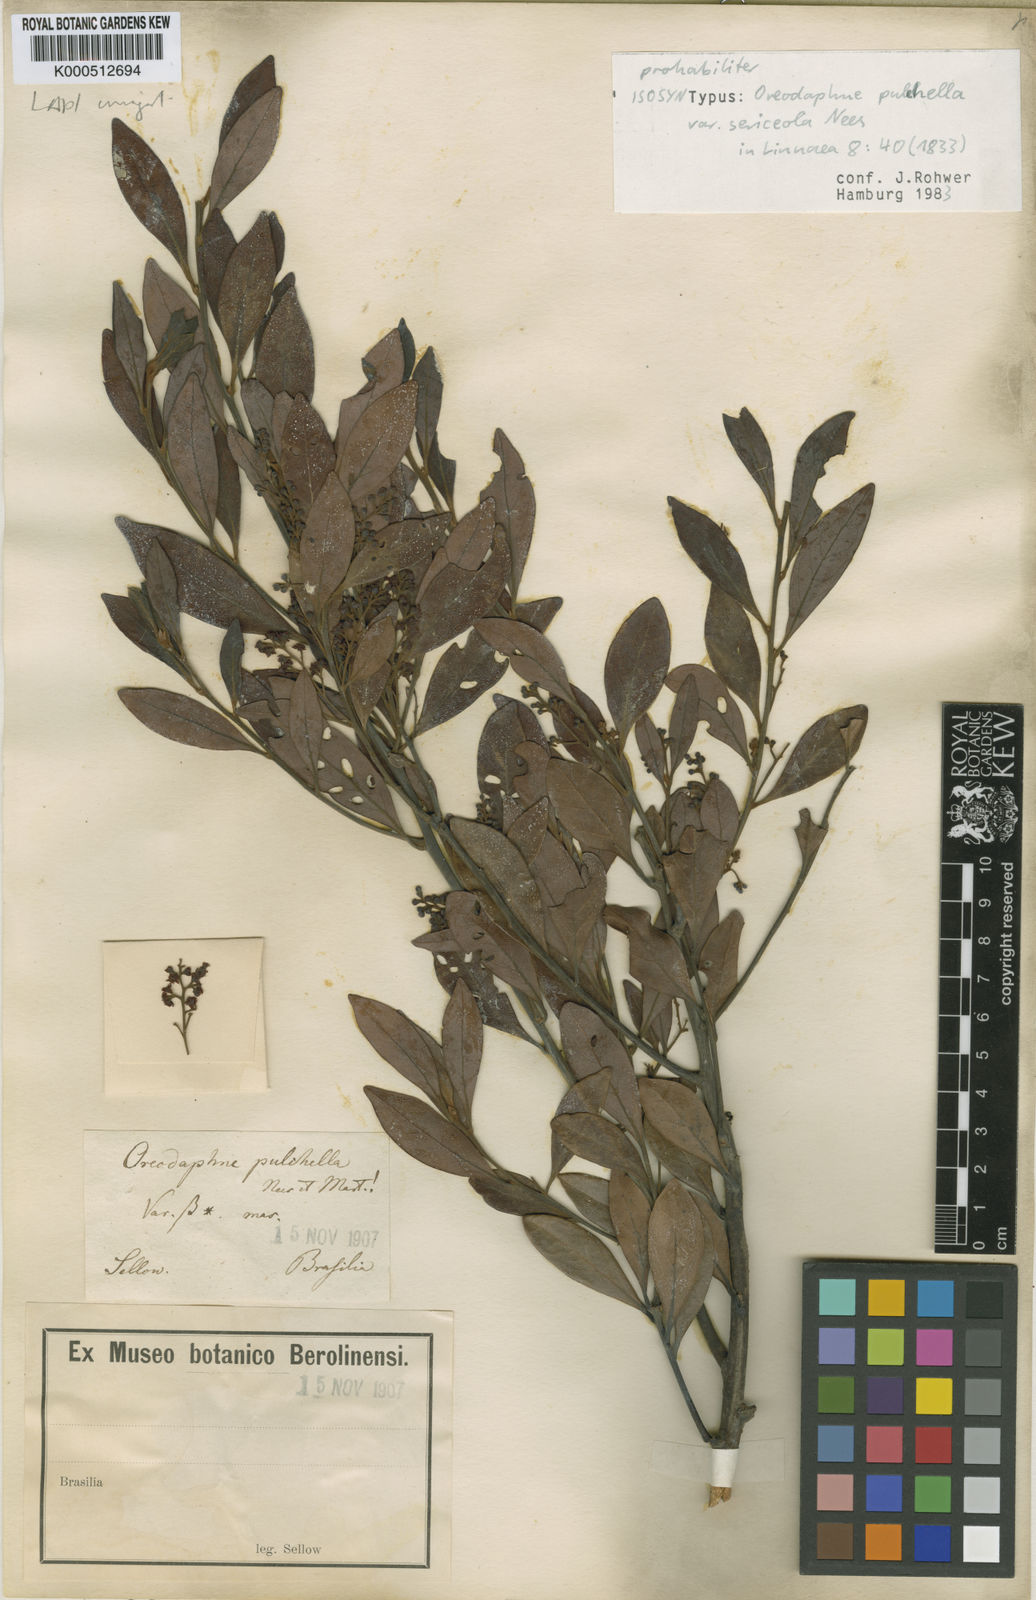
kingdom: Plantae
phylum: Tracheophyta
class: Magnoliopsida
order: Laurales
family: Lauraceae
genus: Mespilodaphne
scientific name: Mespilodaphne pulchella
